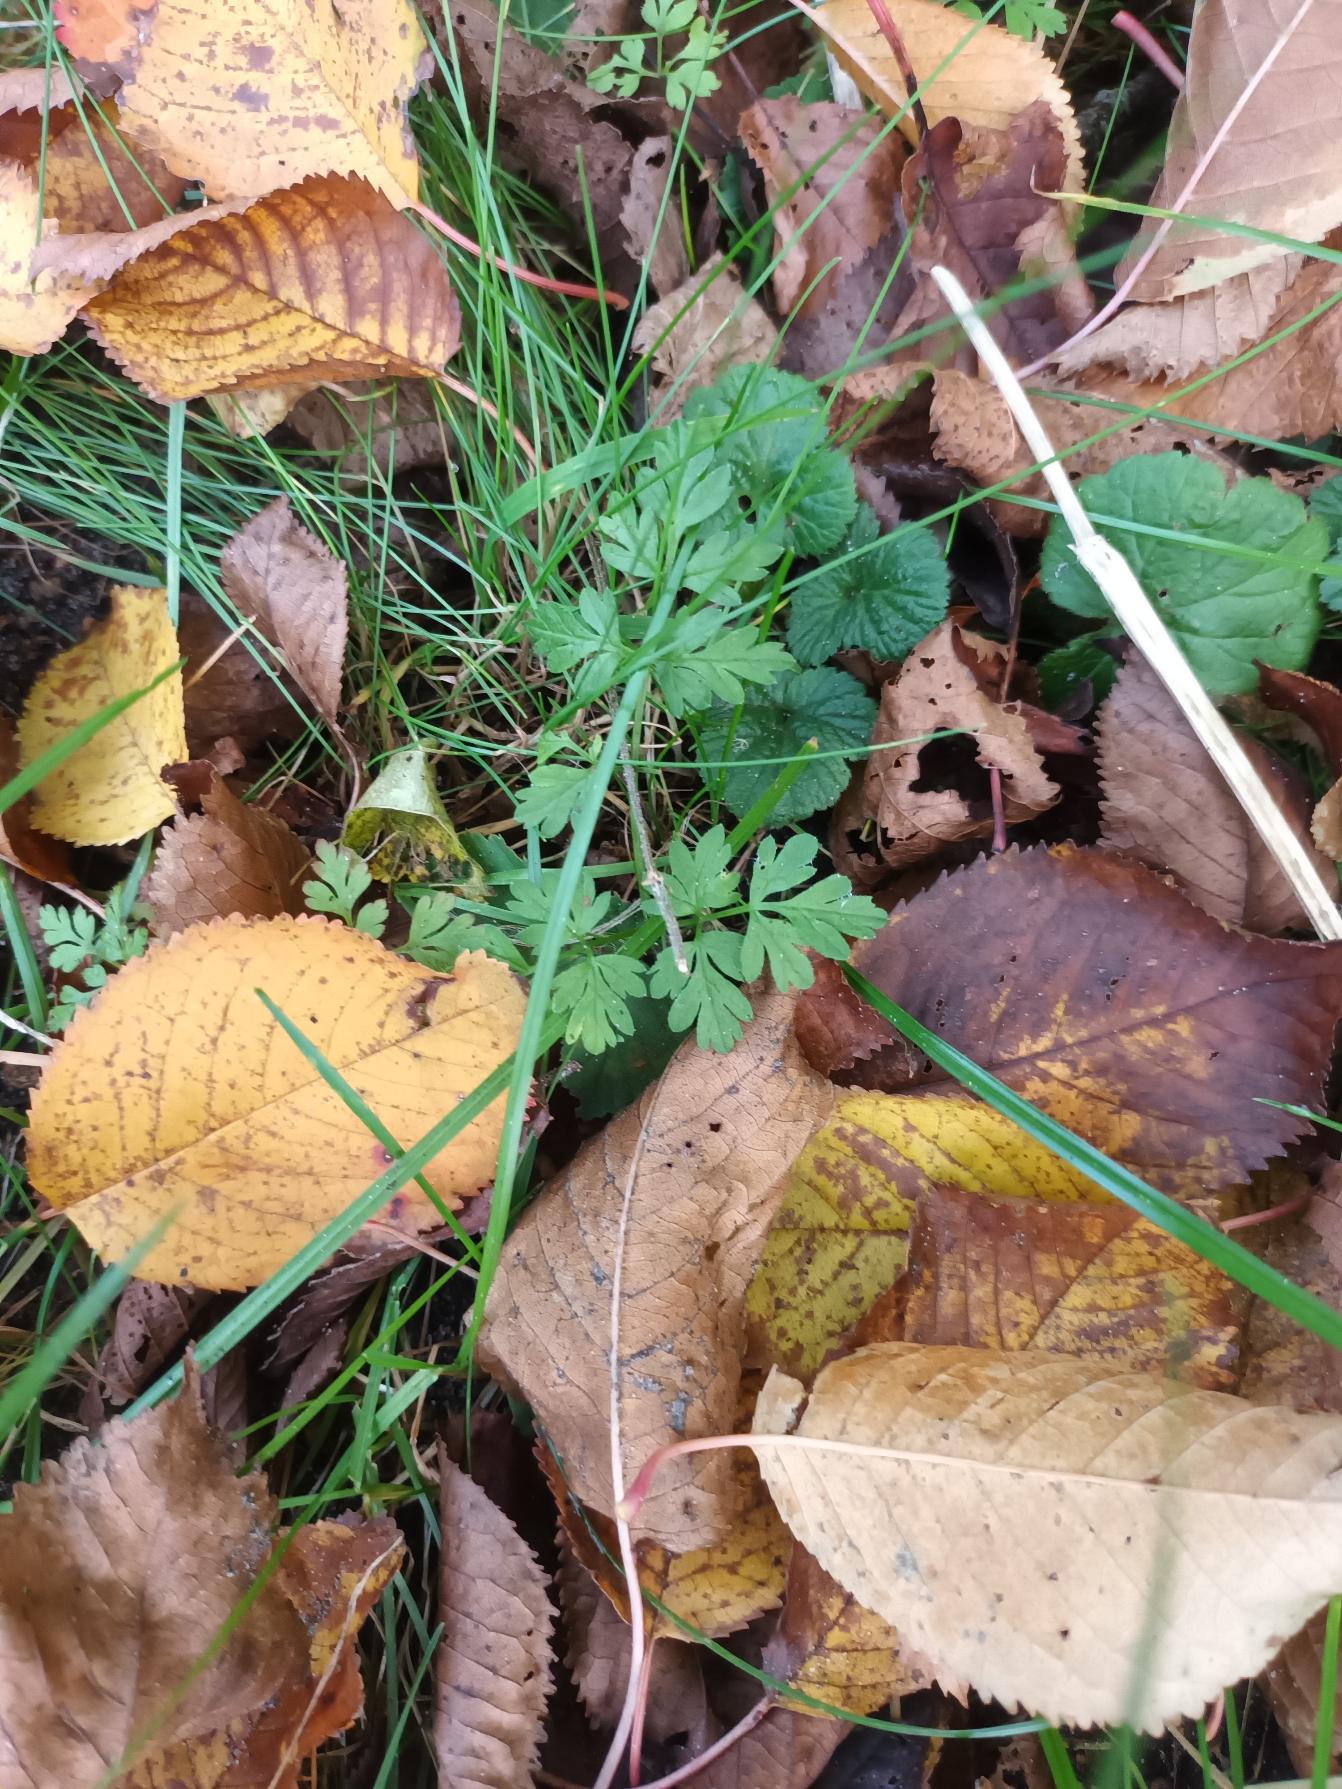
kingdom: Plantae
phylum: Tracheophyta
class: Magnoliopsida
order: Apiales
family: Apiaceae
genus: Chaerophyllum
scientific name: Chaerophyllum temulum
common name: Almindelig hulsvøb
